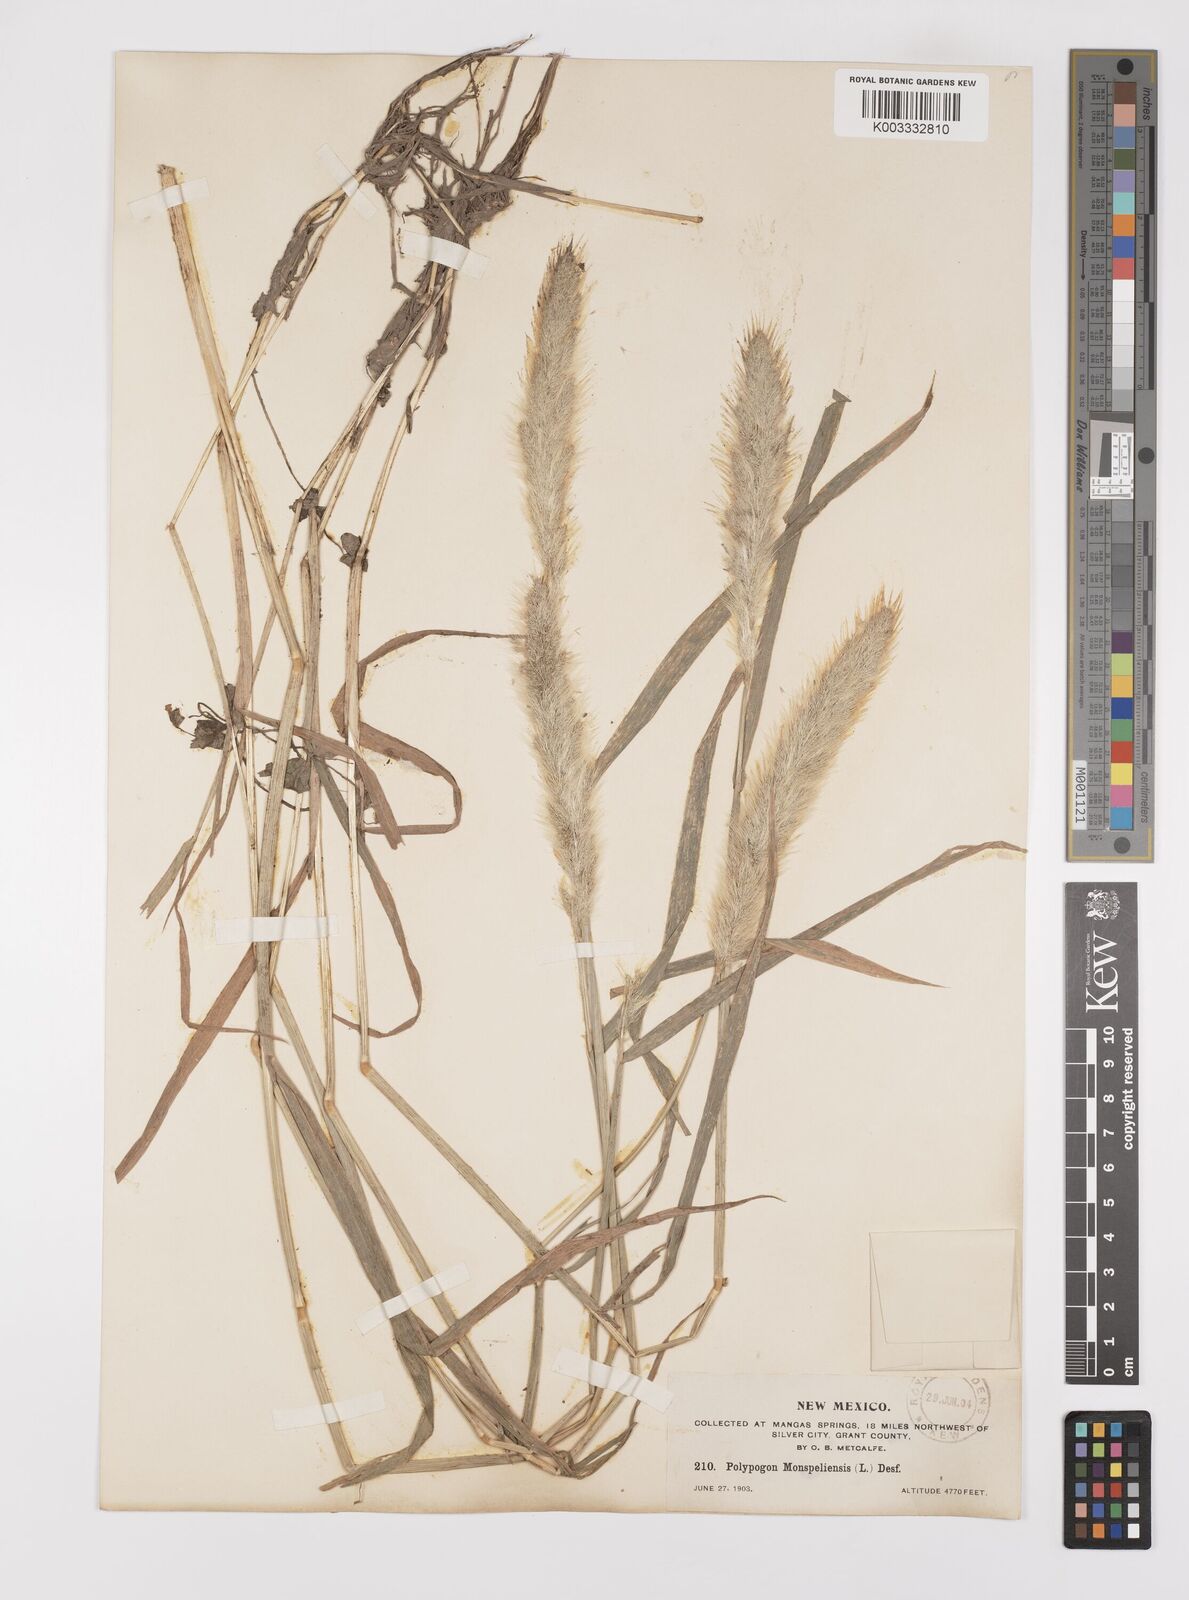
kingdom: Plantae
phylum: Tracheophyta
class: Liliopsida
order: Poales
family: Poaceae
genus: Polypogon
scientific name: Polypogon monspeliensis
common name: Annual rabbitsfoot grass
